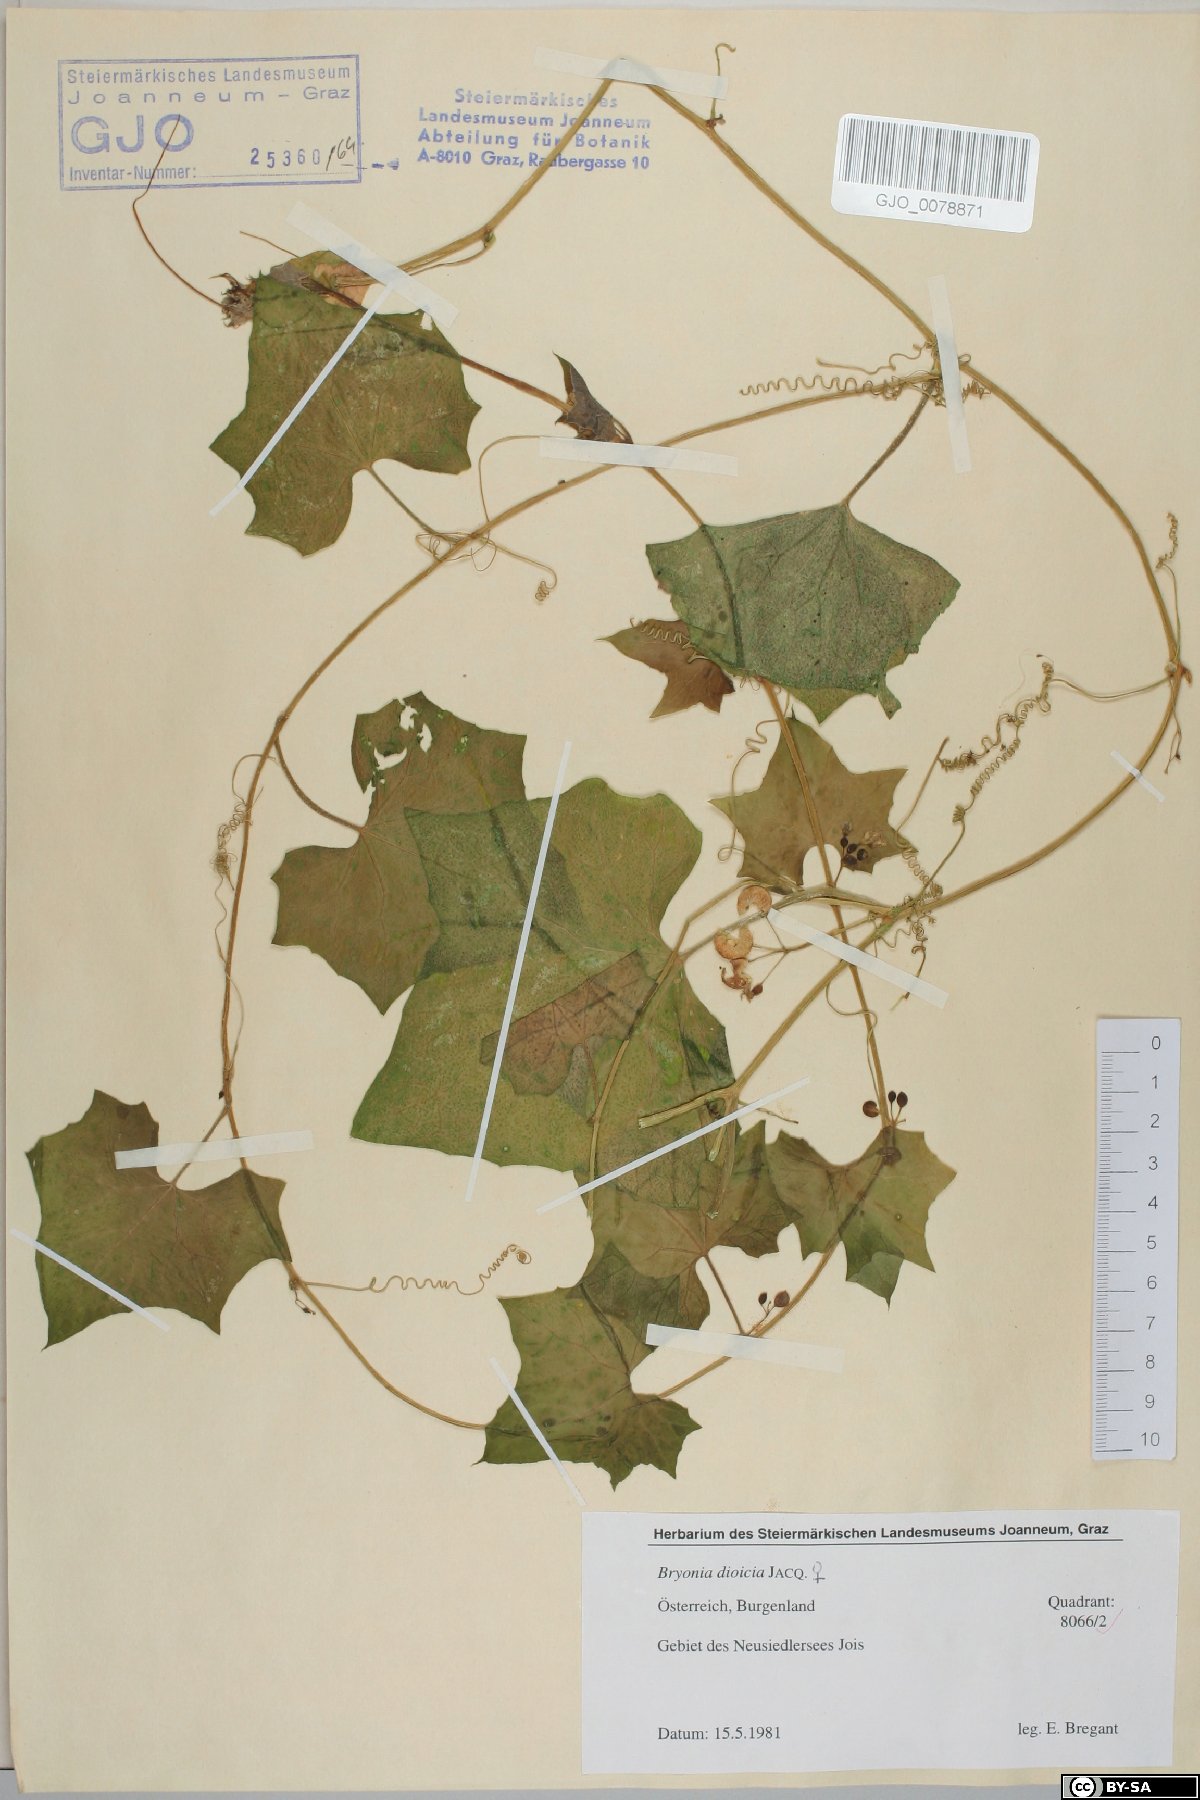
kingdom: Plantae
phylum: Tracheophyta
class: Magnoliopsida
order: Cucurbitales
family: Cucurbitaceae
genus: Bryonia
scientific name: Bryonia dioica
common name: White bryony
